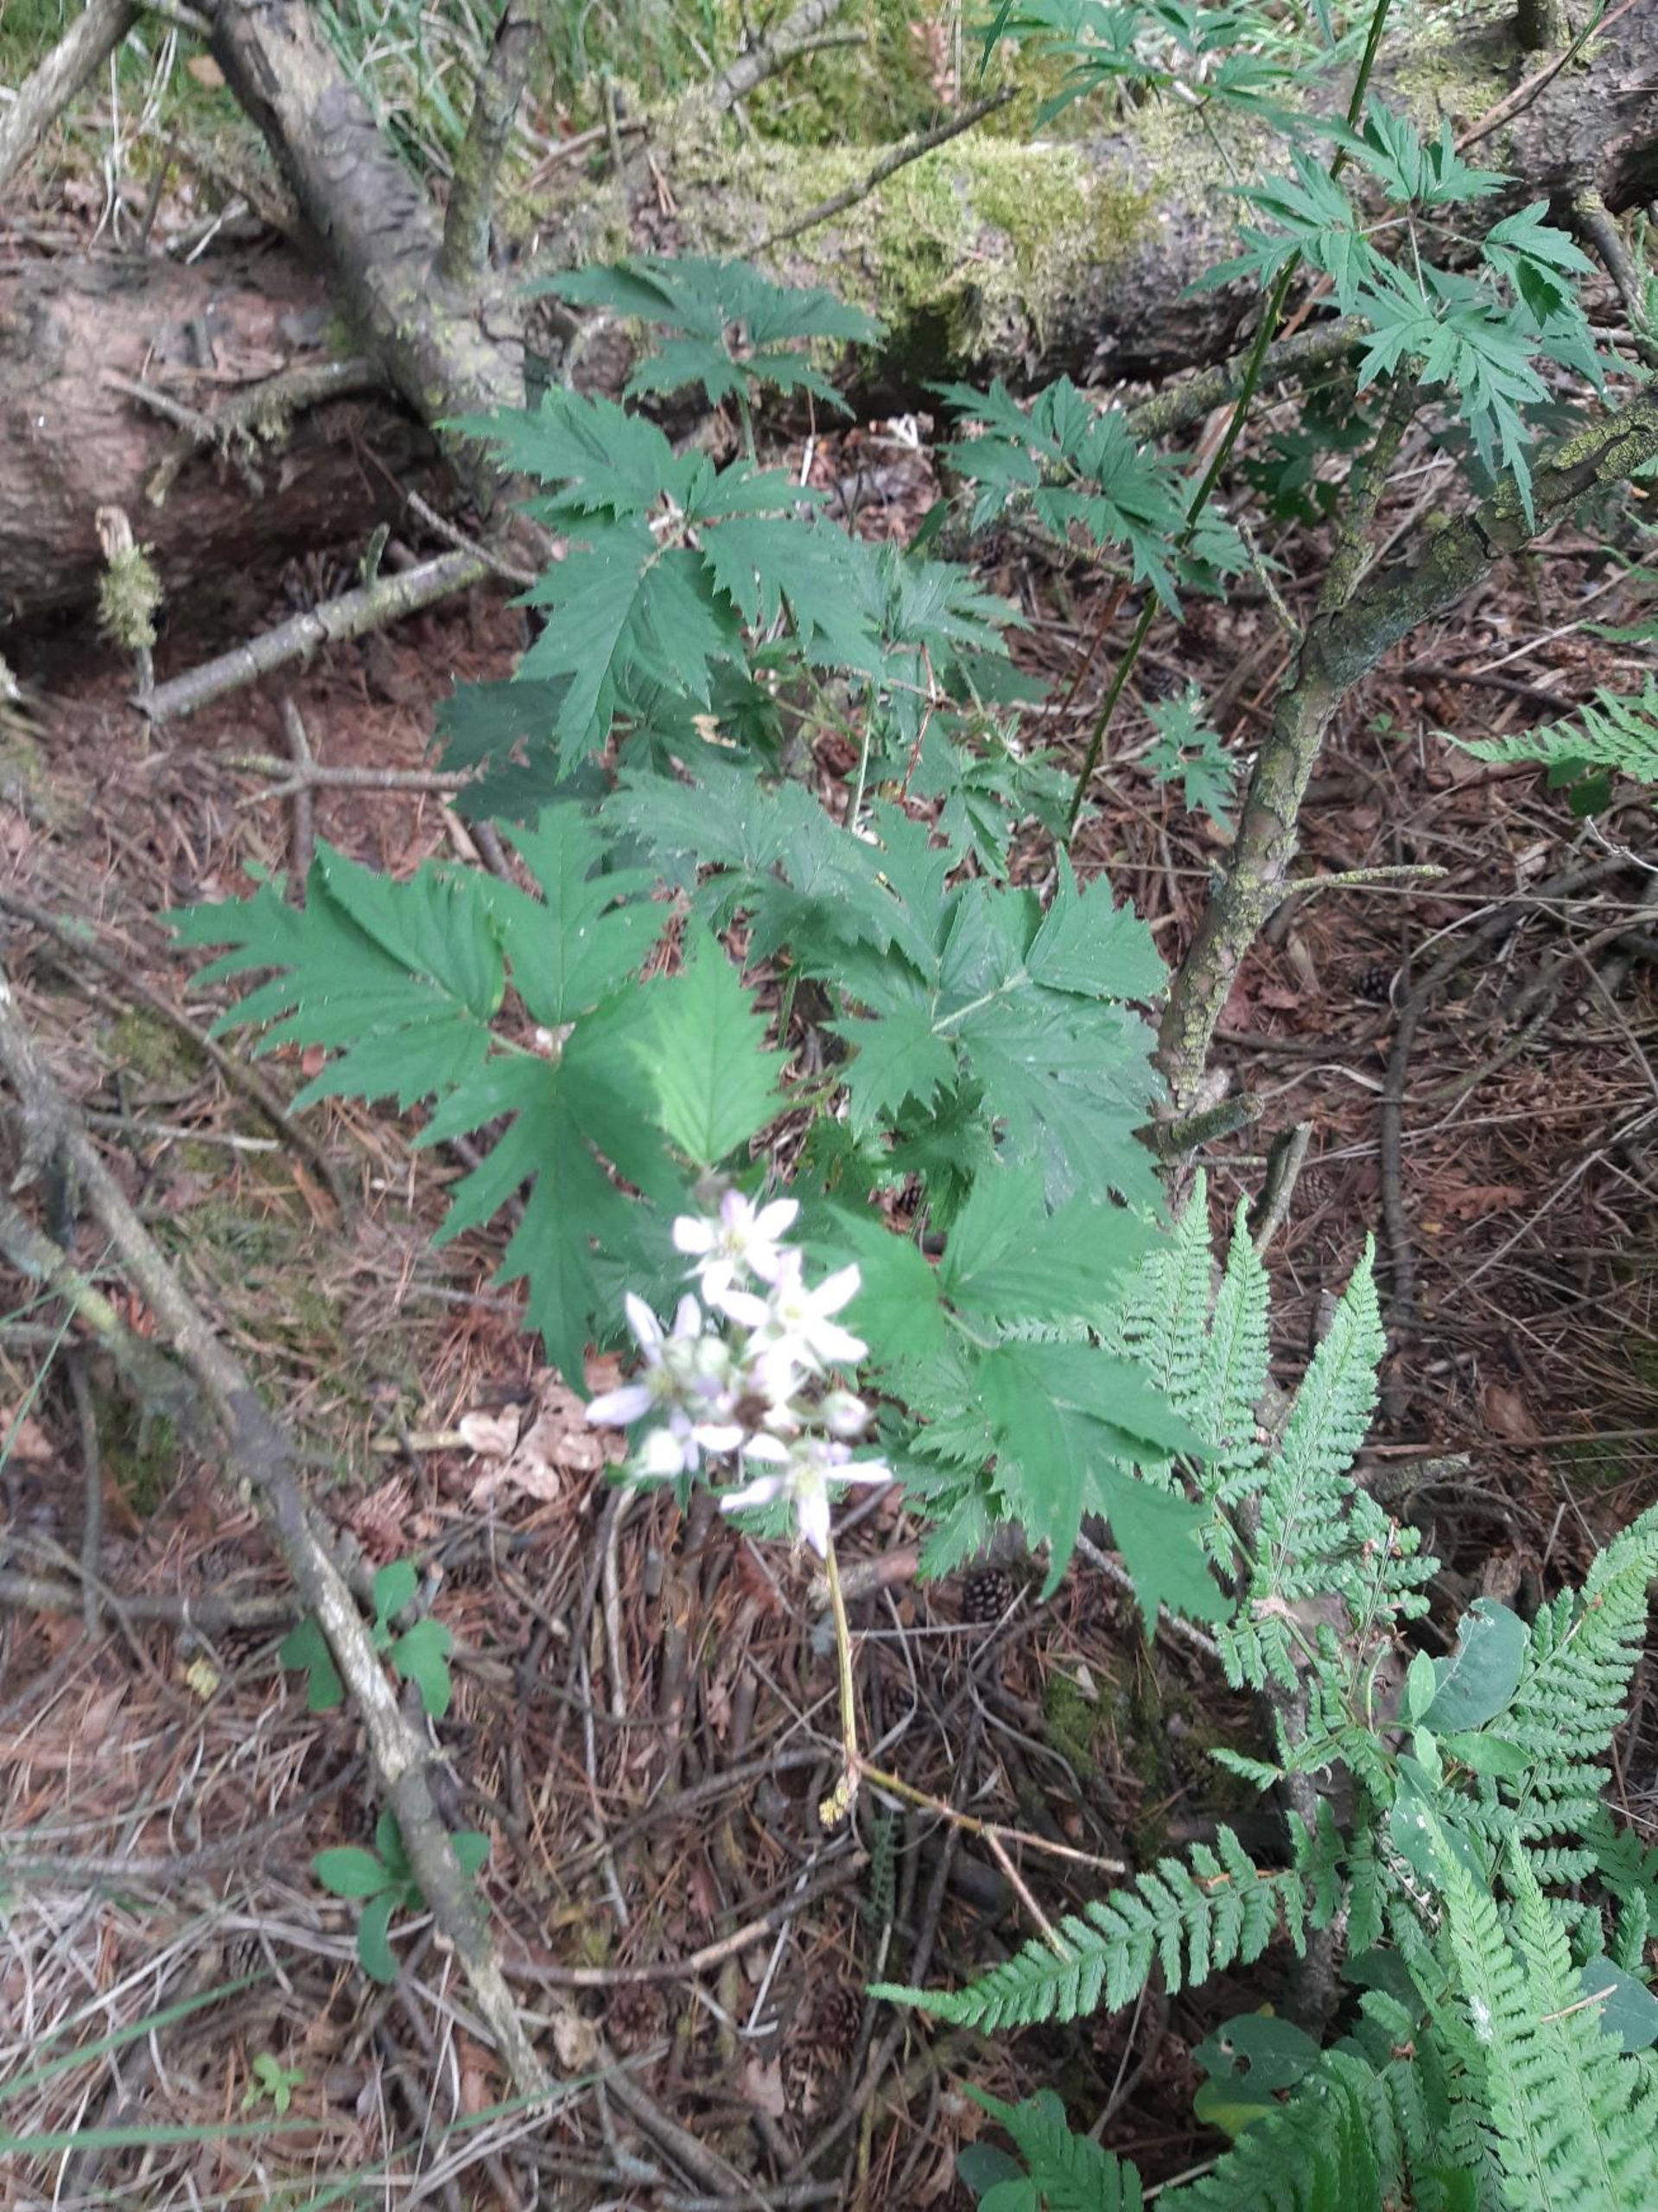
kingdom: Plantae
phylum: Tracheophyta
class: Magnoliopsida
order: Rosales
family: Rosaceae
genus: Rubus
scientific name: Rubus laciniatus
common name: Fliget brombær
